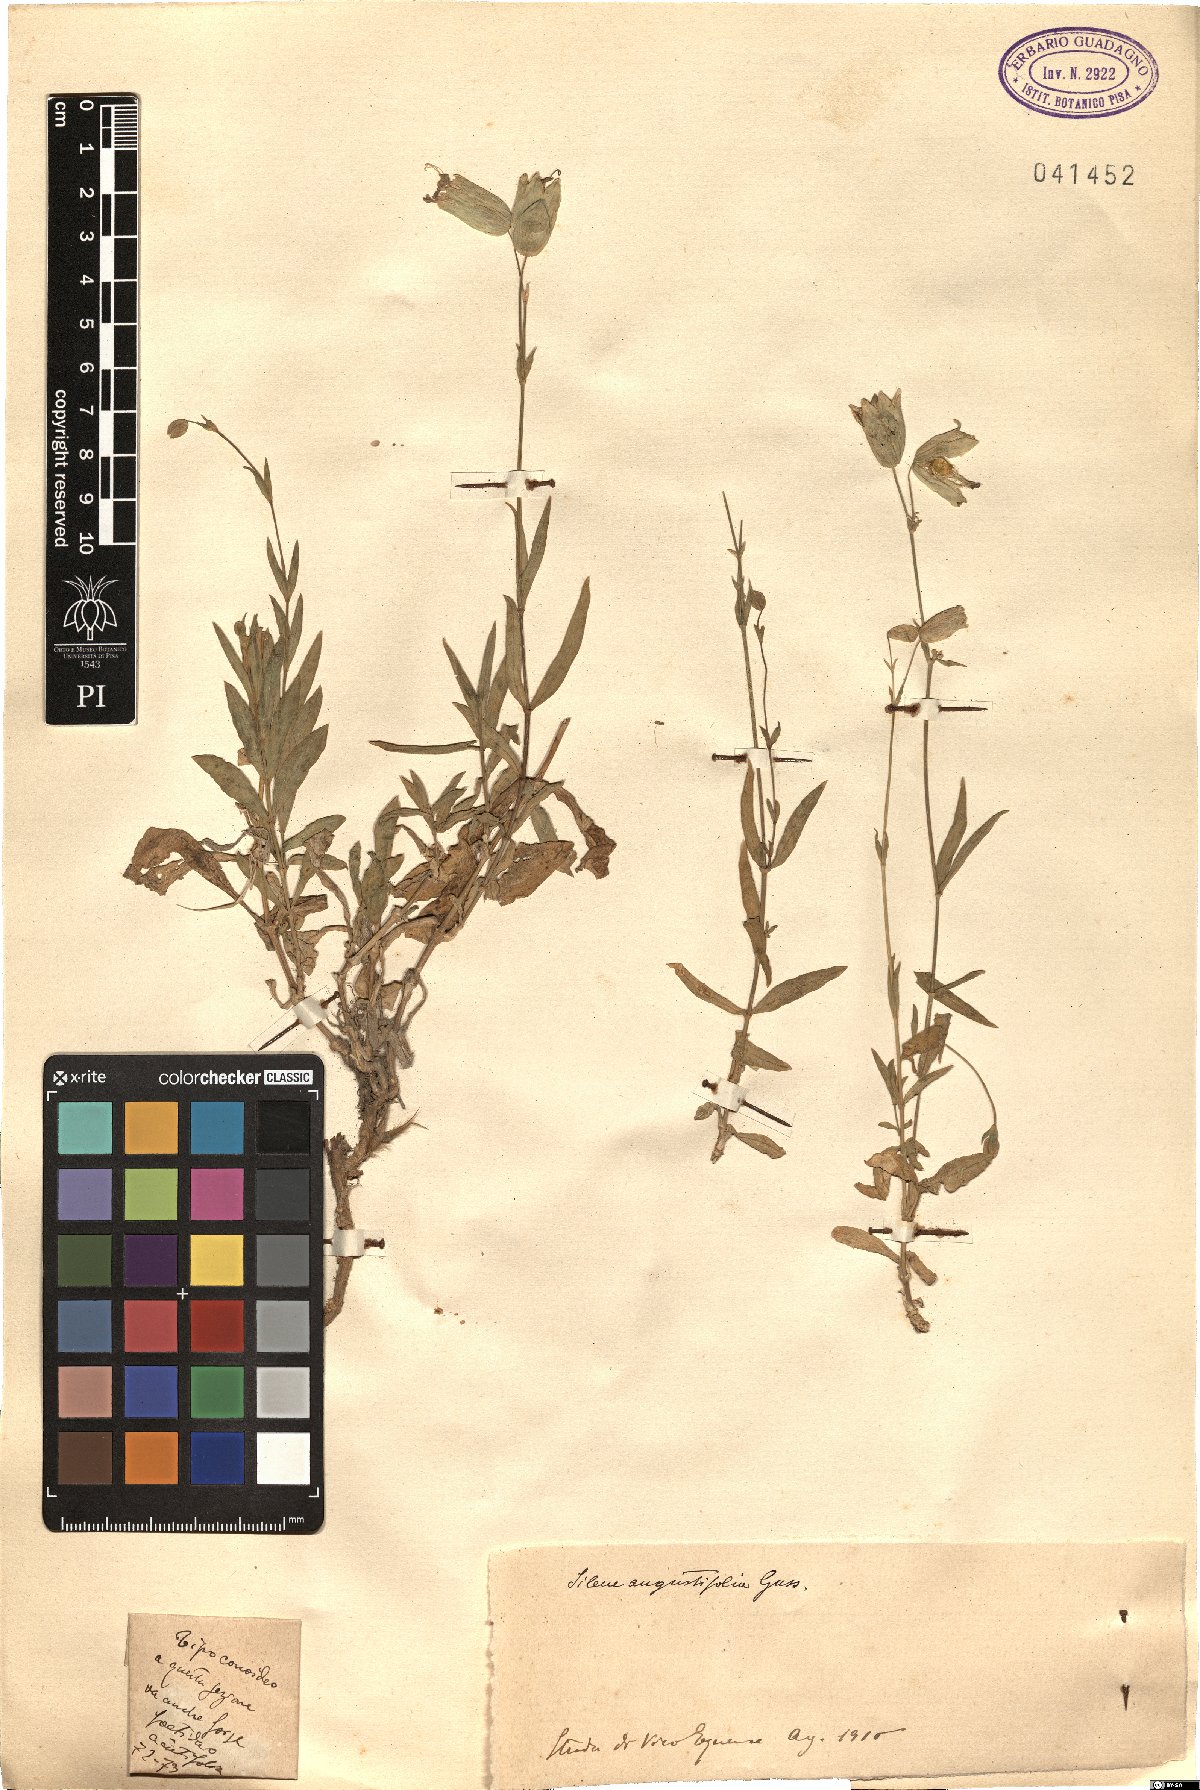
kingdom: Plantae
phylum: Tracheophyta
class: Magnoliopsida
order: Caryophyllales
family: Caryophyllaceae
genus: Silene
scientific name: Silene vulgaris
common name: Bladder campion
